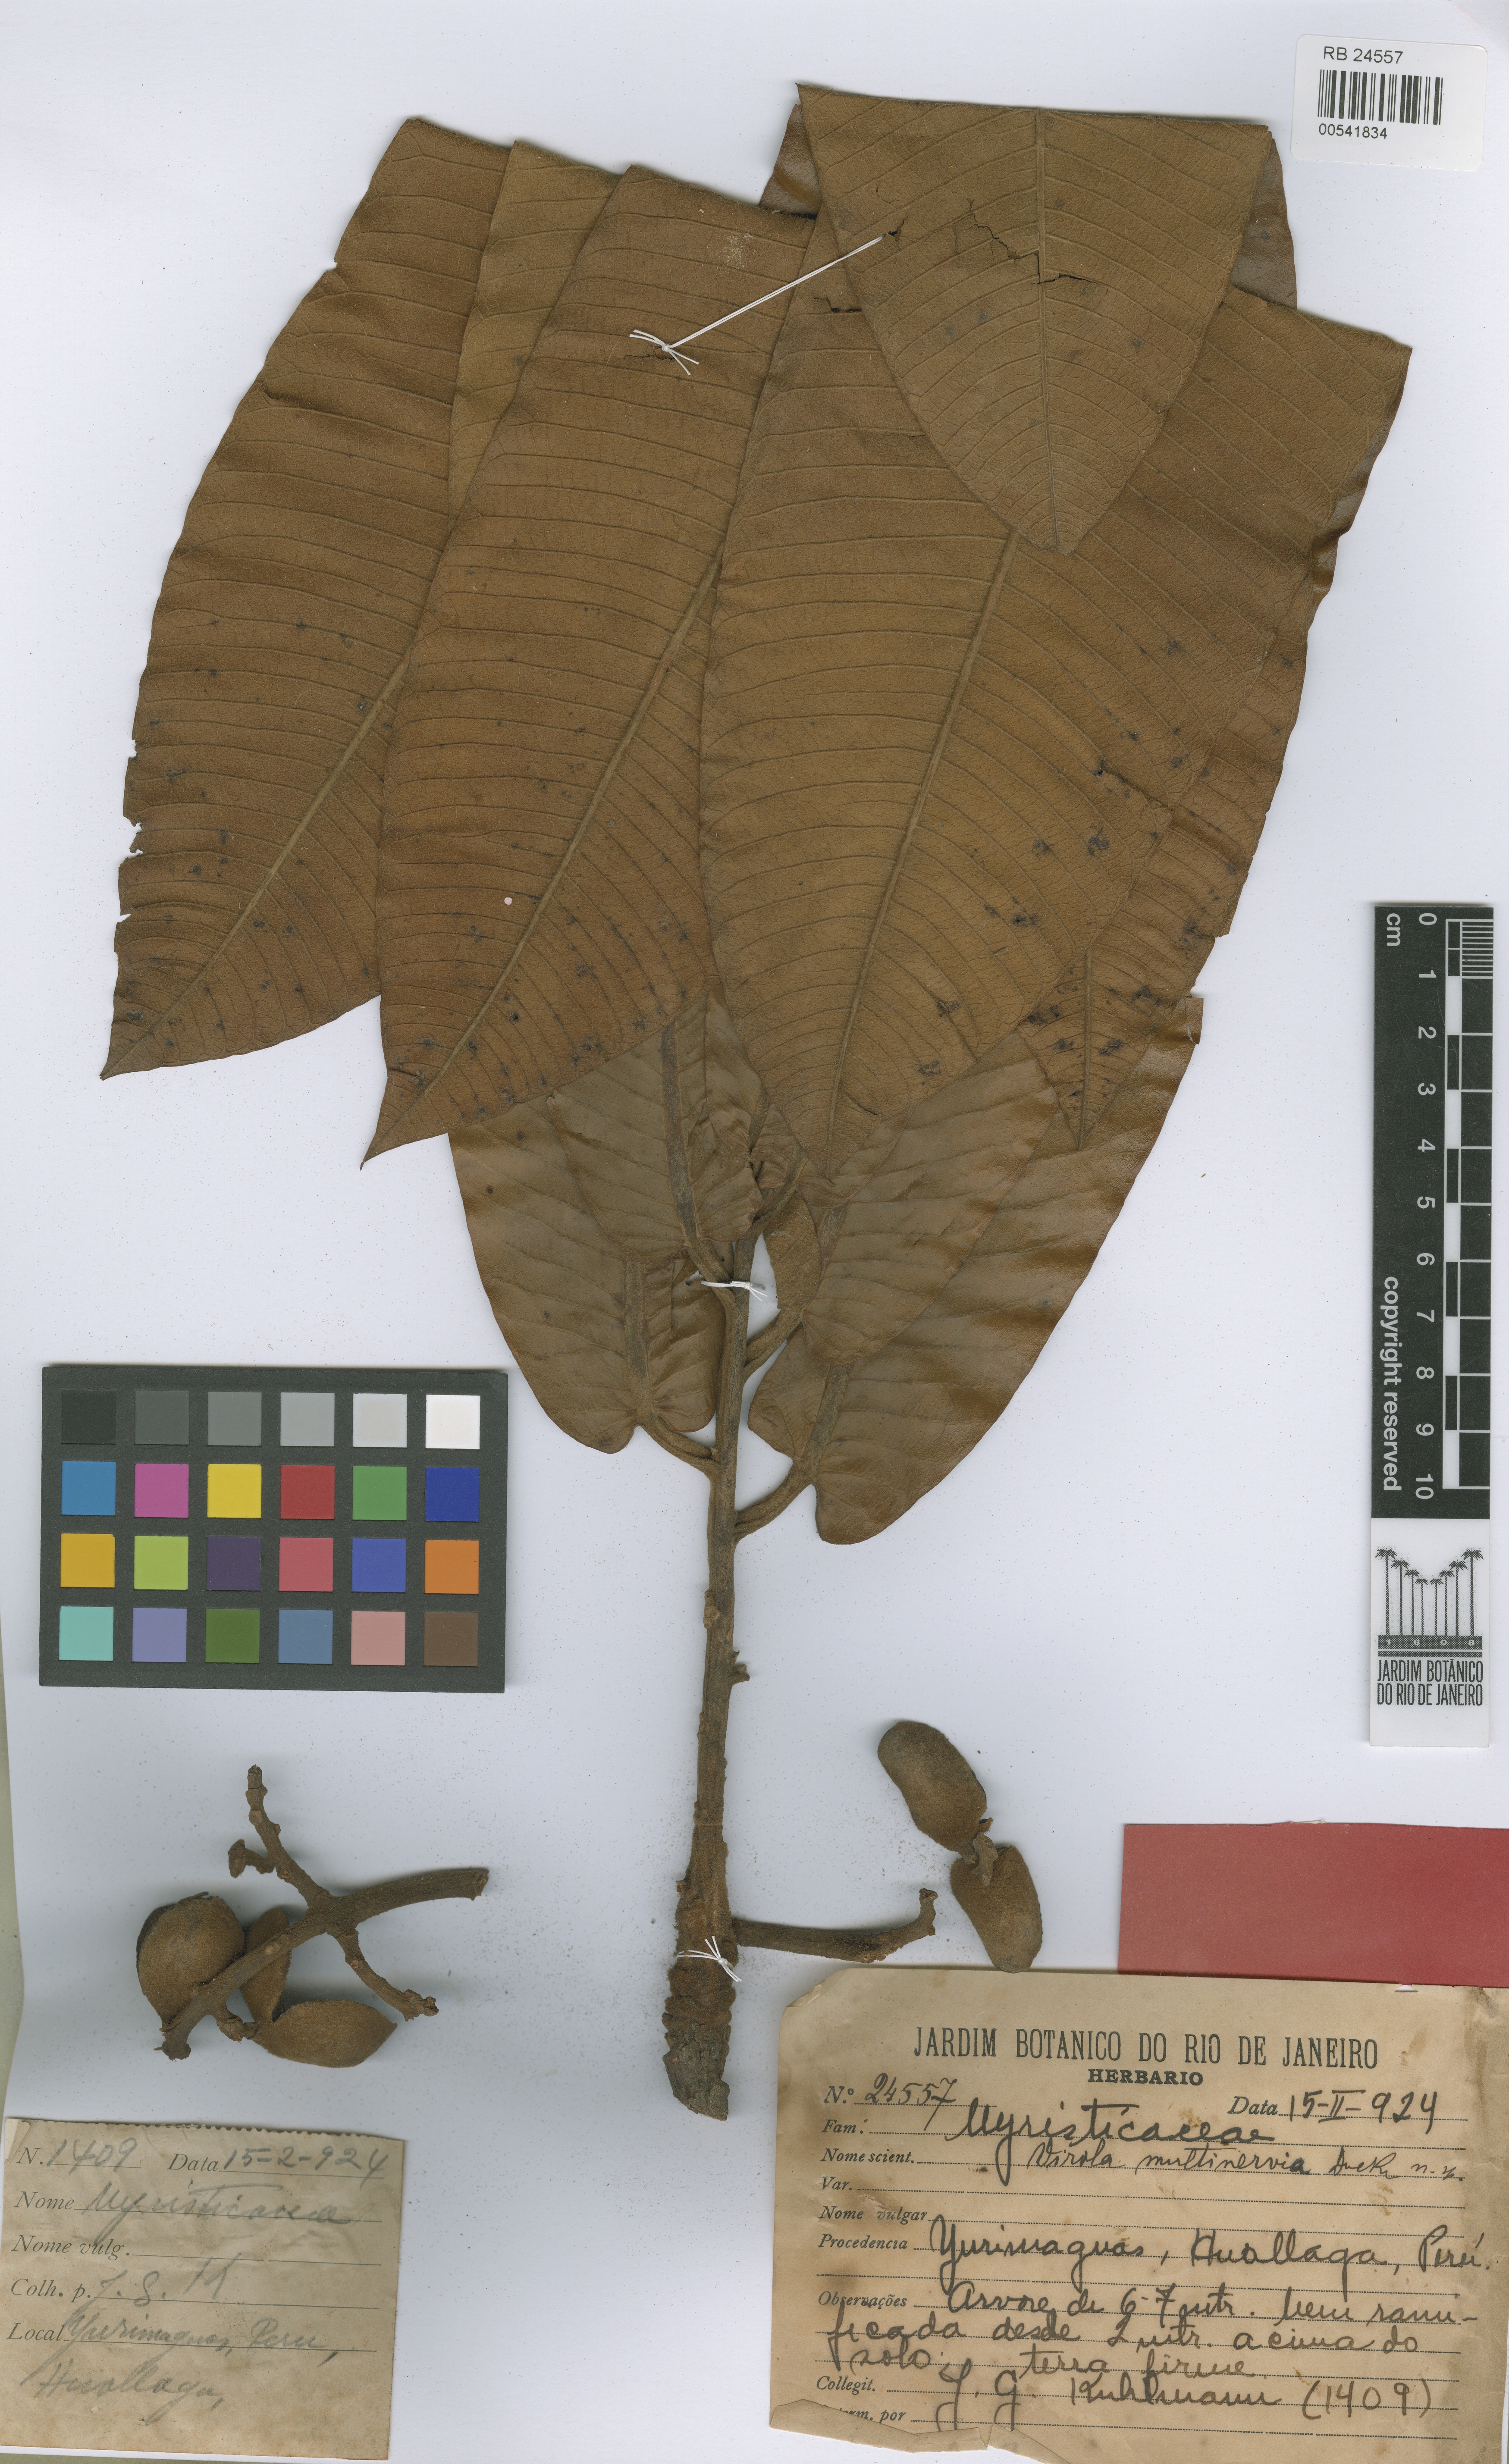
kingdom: Plantae
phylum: Tracheophyta
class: Magnoliopsida
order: Magnoliales
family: Myristicaceae
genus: Virola
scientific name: Virola multinervia
